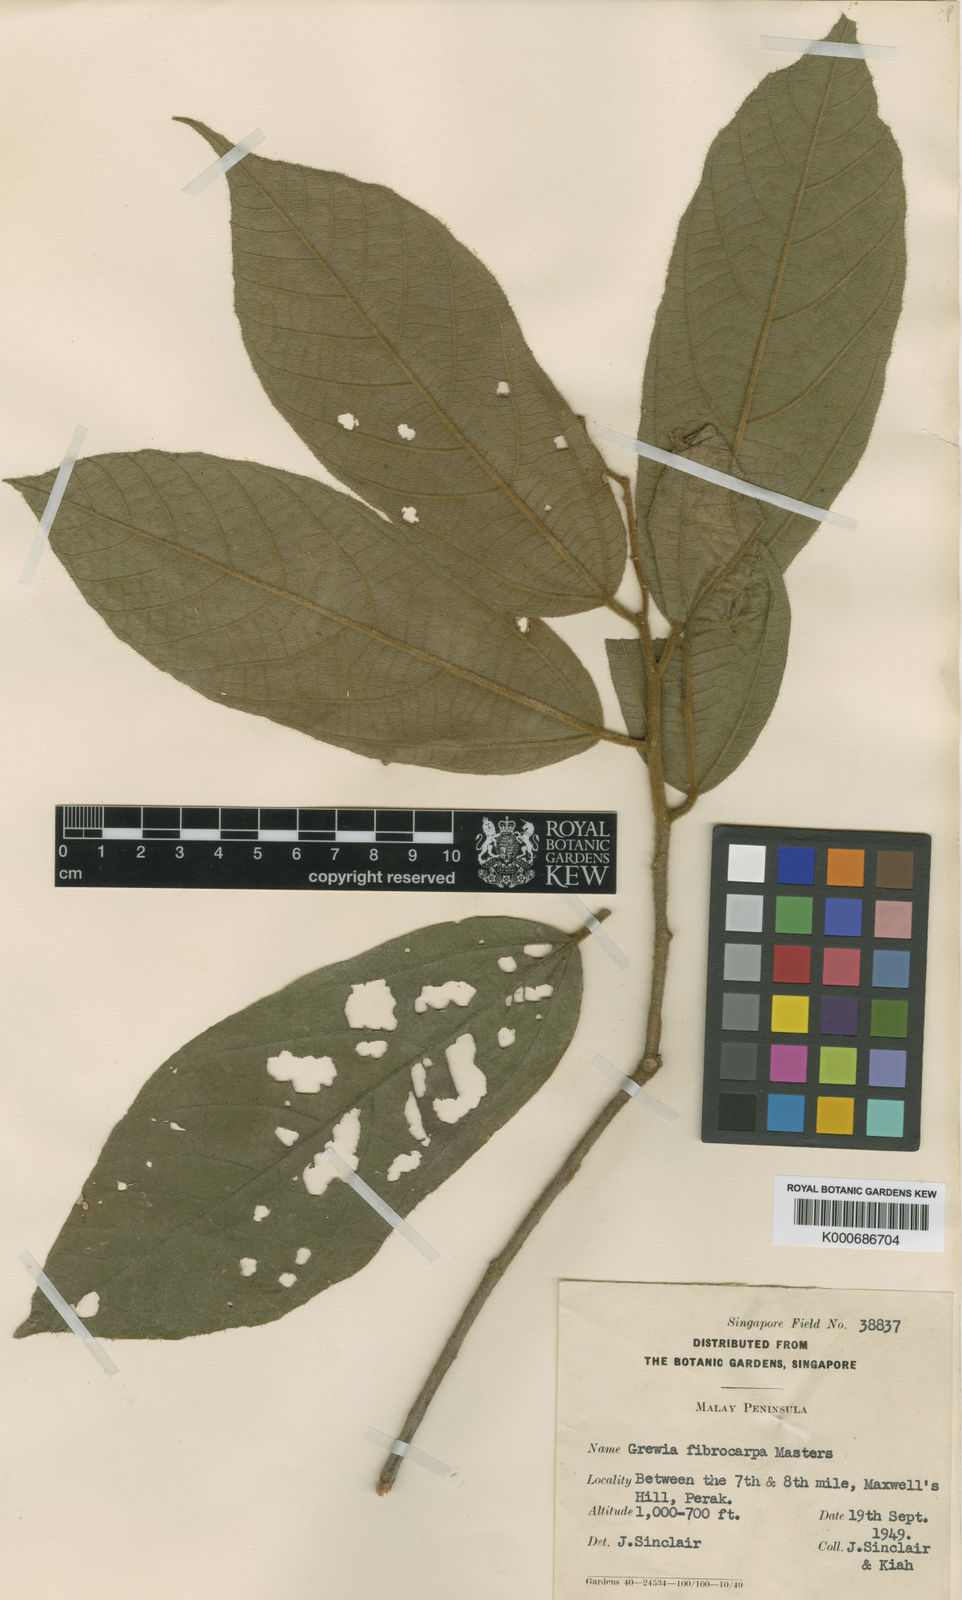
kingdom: Plantae
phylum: Tracheophyta
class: Magnoliopsida
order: Malvales
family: Malvaceae
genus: Microcos
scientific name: Microcos fibrocarpa
